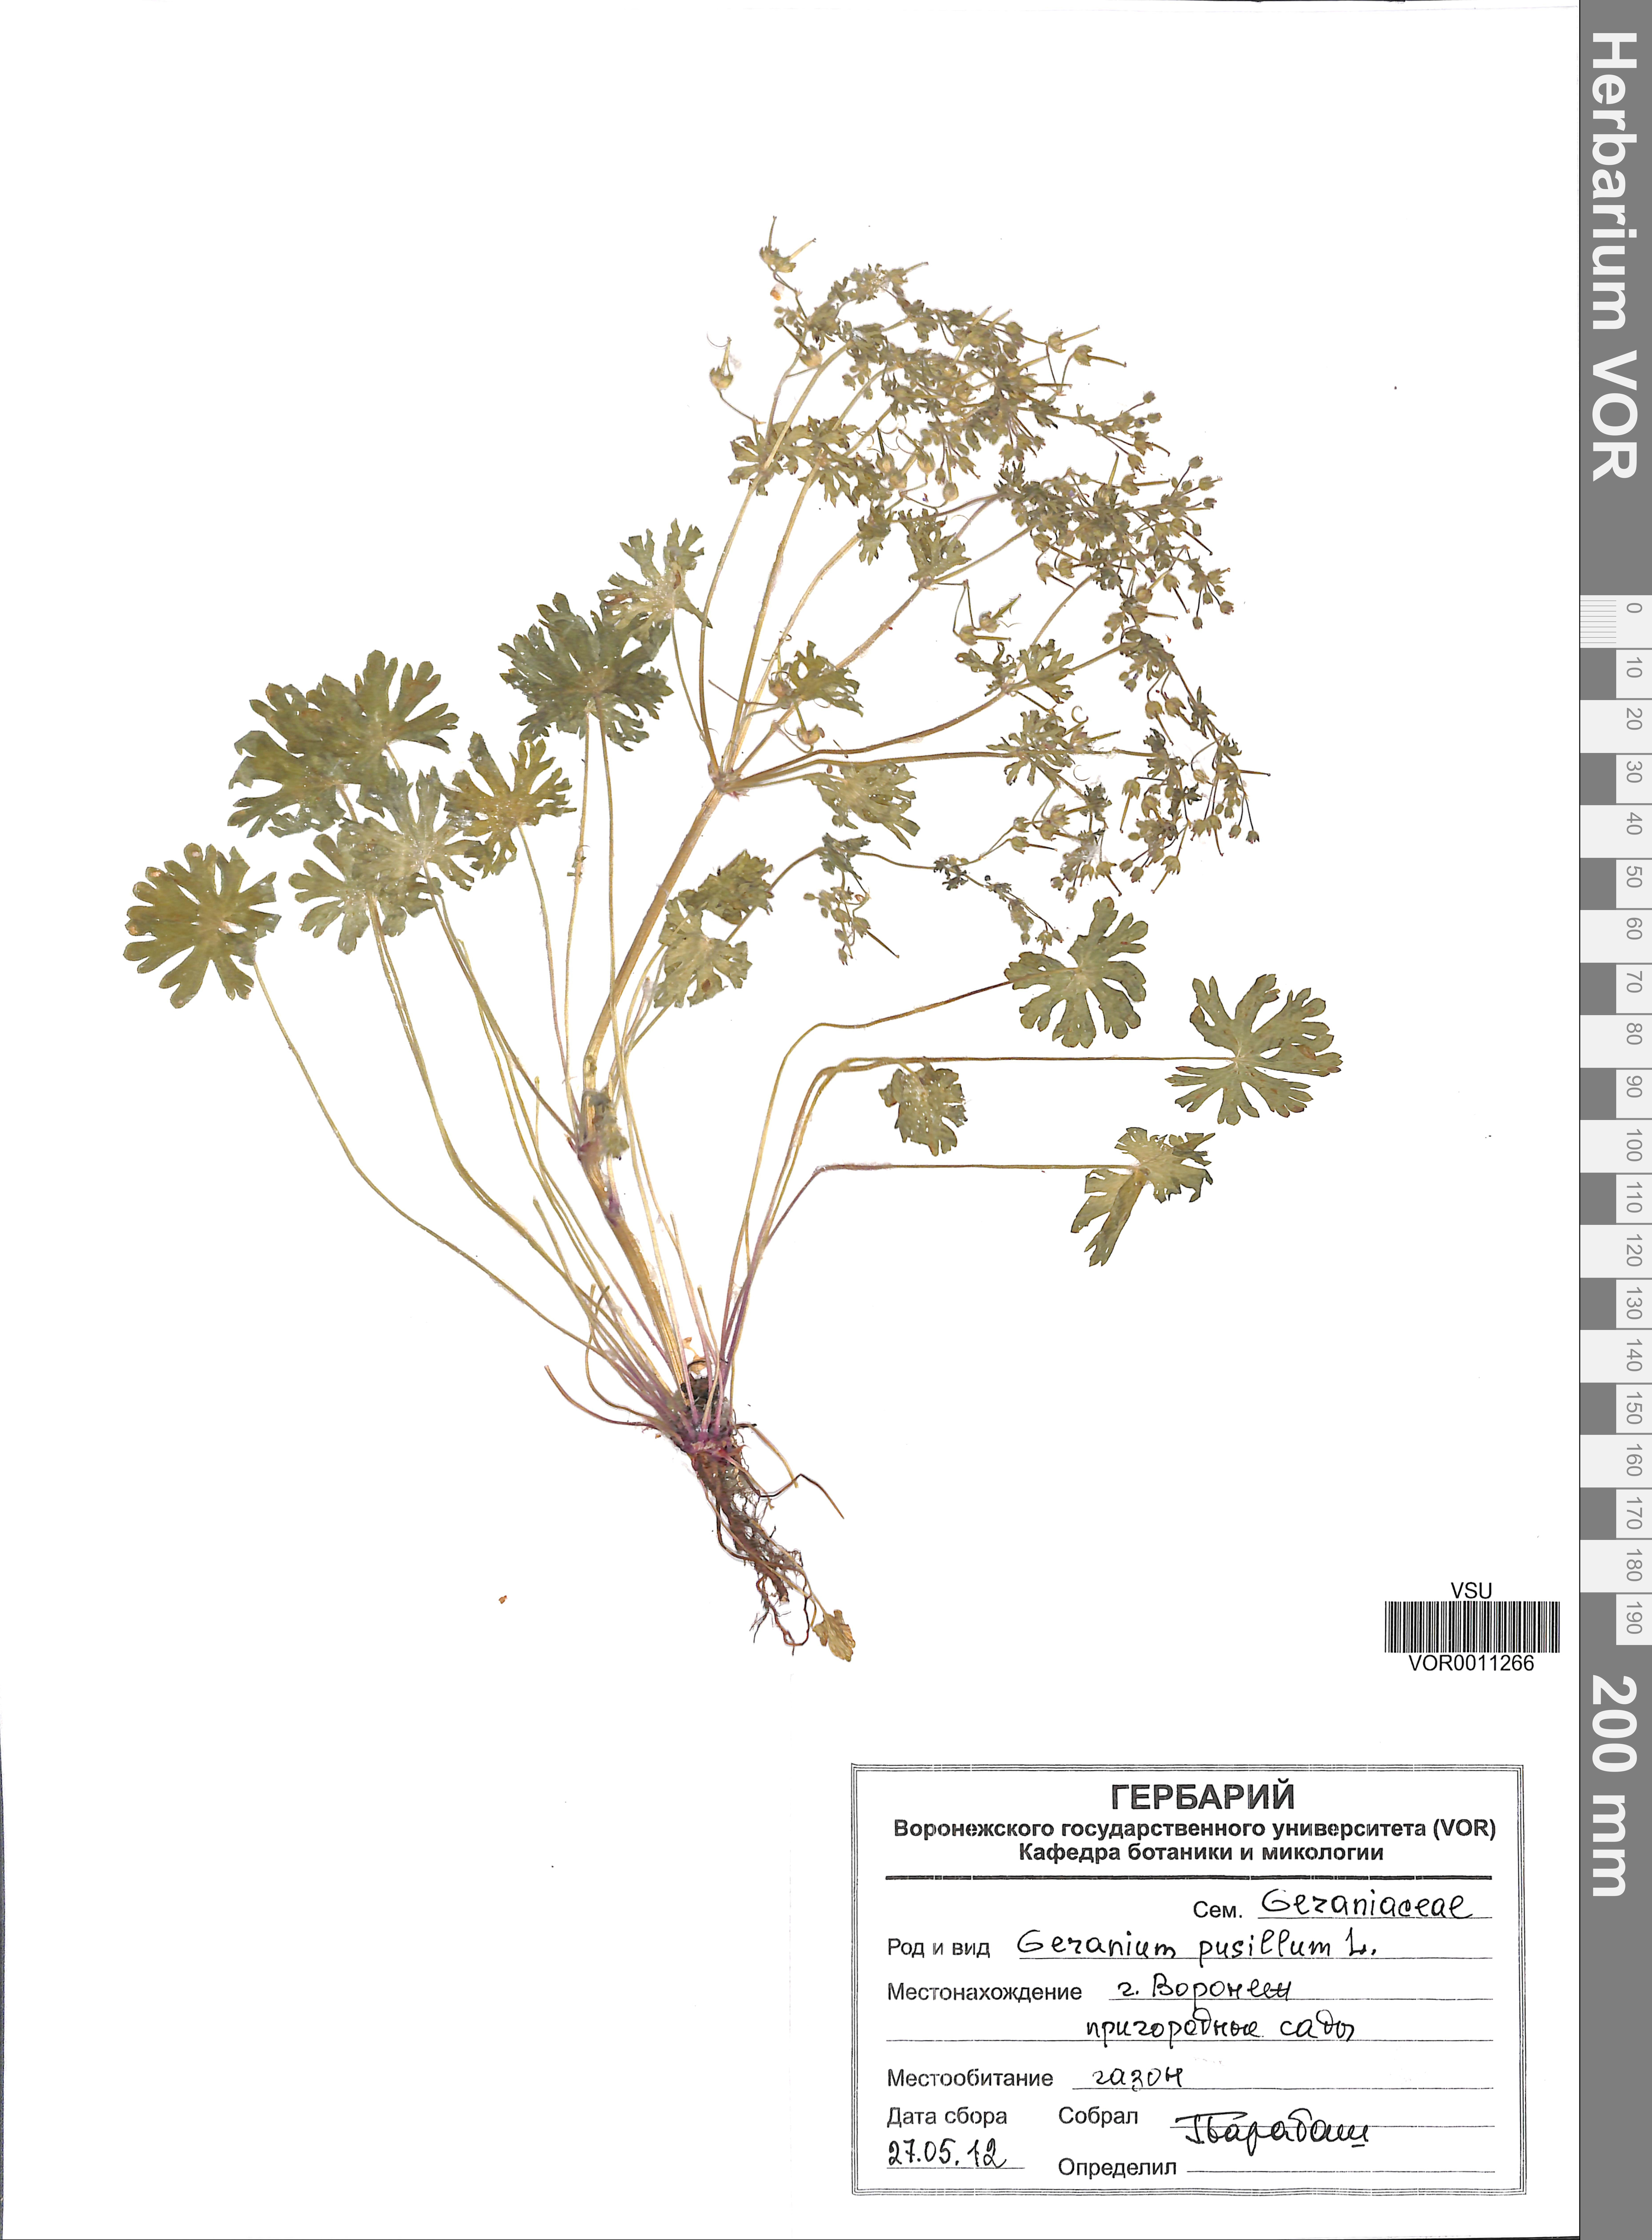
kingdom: Plantae
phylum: Tracheophyta
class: Magnoliopsida
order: Geraniales
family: Geraniaceae
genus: Geranium
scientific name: Geranium pusillum
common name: Small geranium
